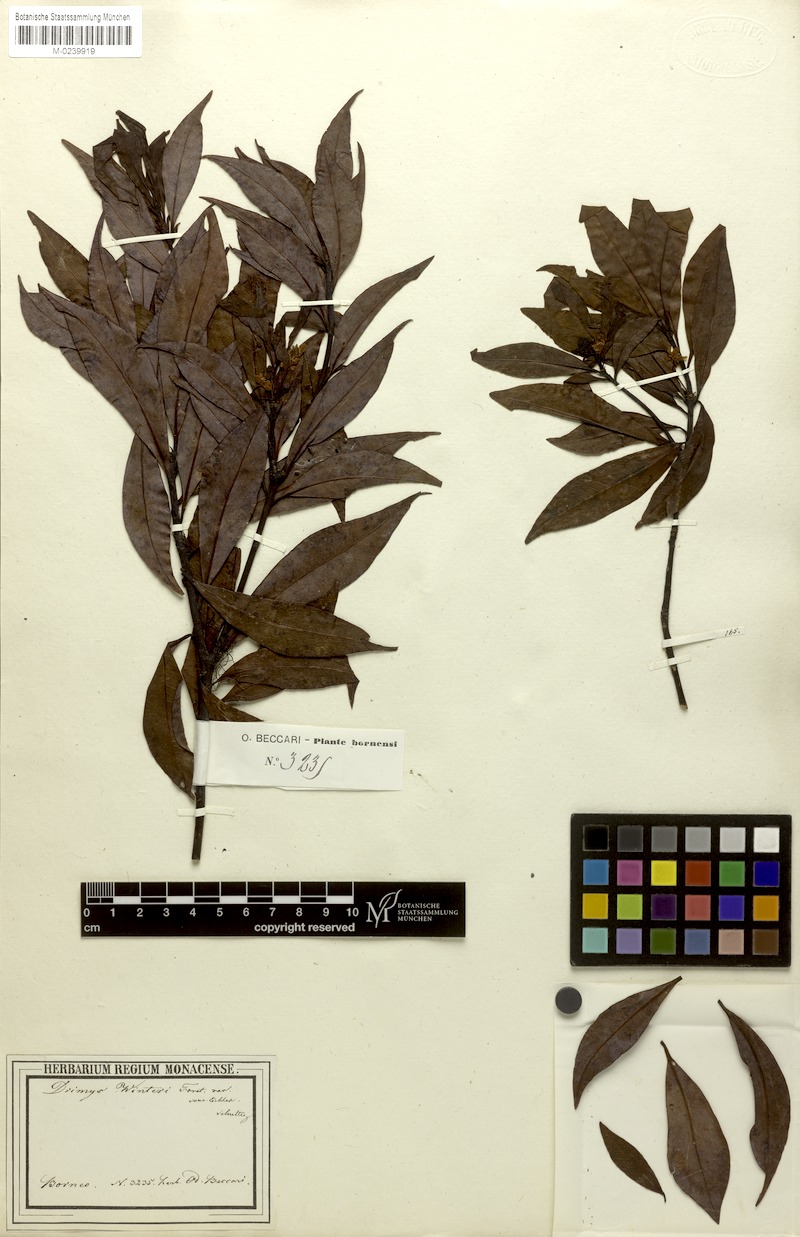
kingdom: Plantae
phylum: Tracheophyta
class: Magnoliopsida
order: Canellales
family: Winteraceae
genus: Drimys
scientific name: Drimys piperita
